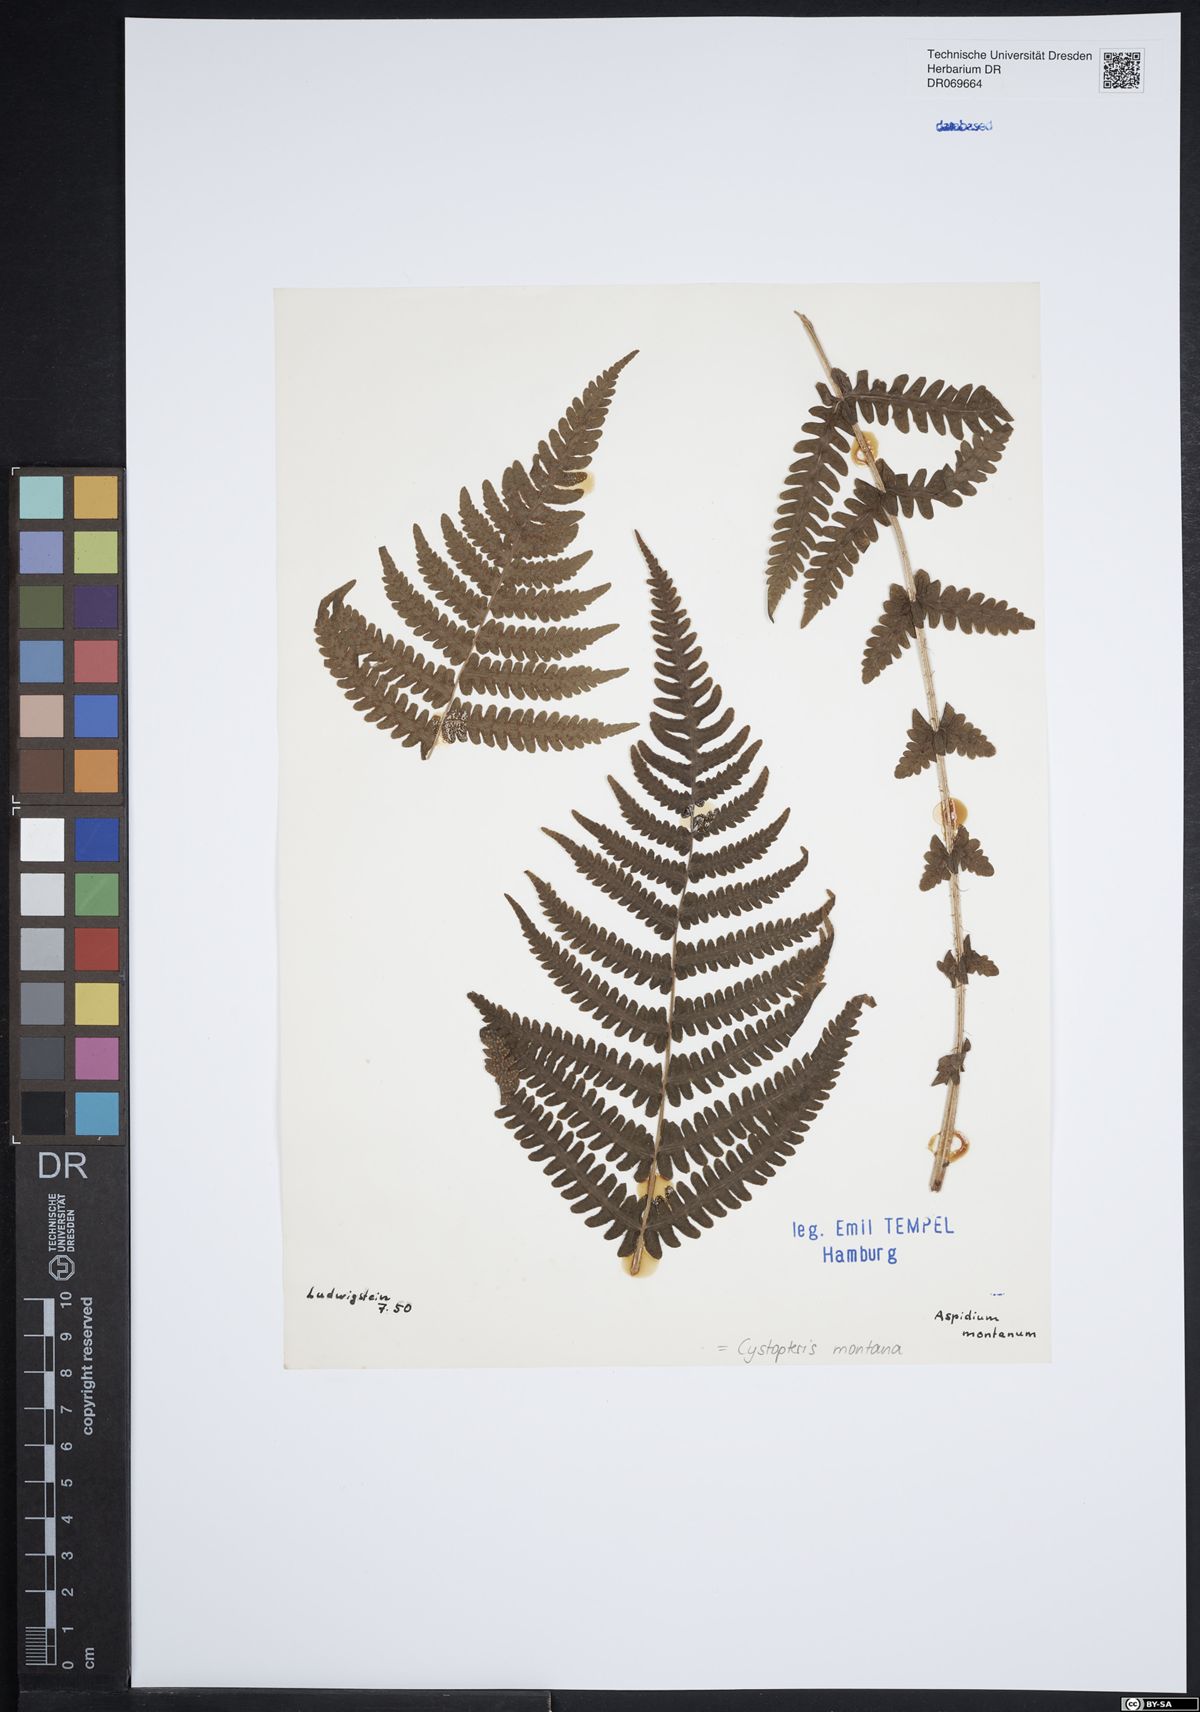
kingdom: Plantae
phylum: Tracheophyta
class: Polypodiopsida
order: Polypodiales
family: Cystopteridaceae
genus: Cystopteris
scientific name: Cystopteris montana
